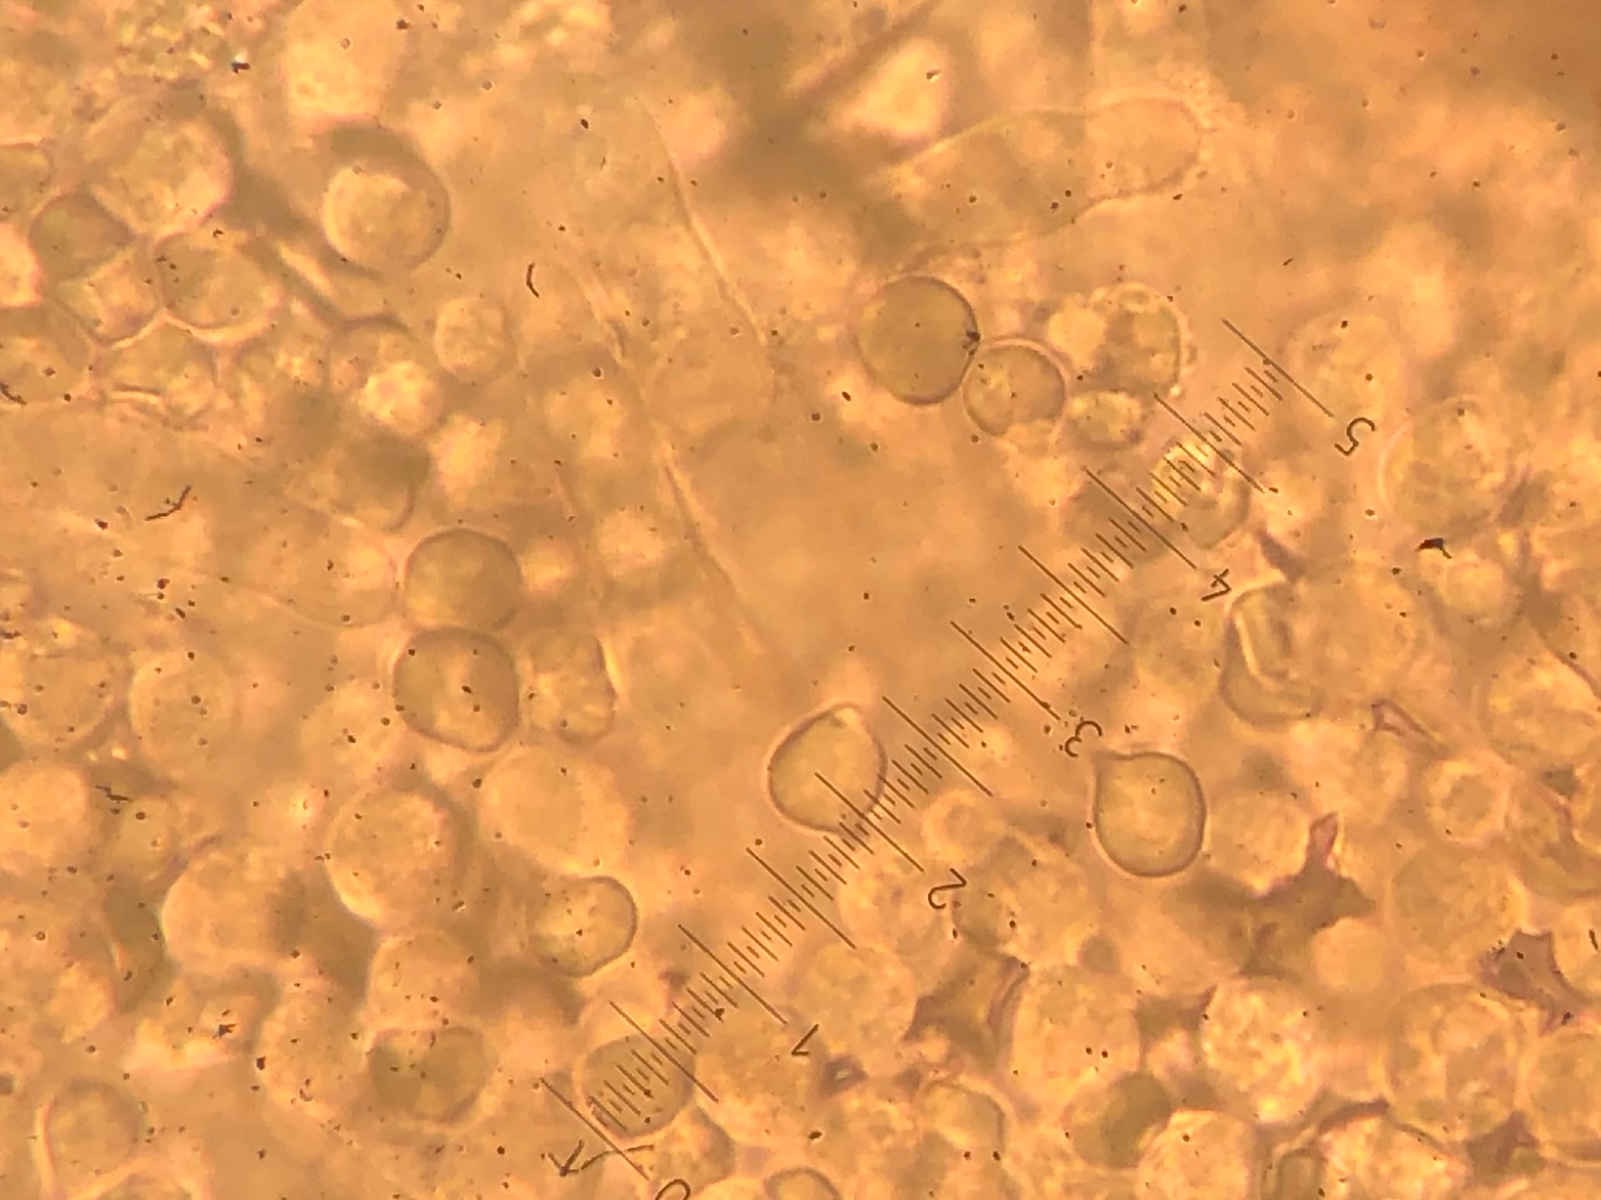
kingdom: Fungi
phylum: Basidiomycota
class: Agaricomycetes
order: Agaricales
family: Tricholomataceae
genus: Mycenella
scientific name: Mycenella salicina
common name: glatsporet dughat
